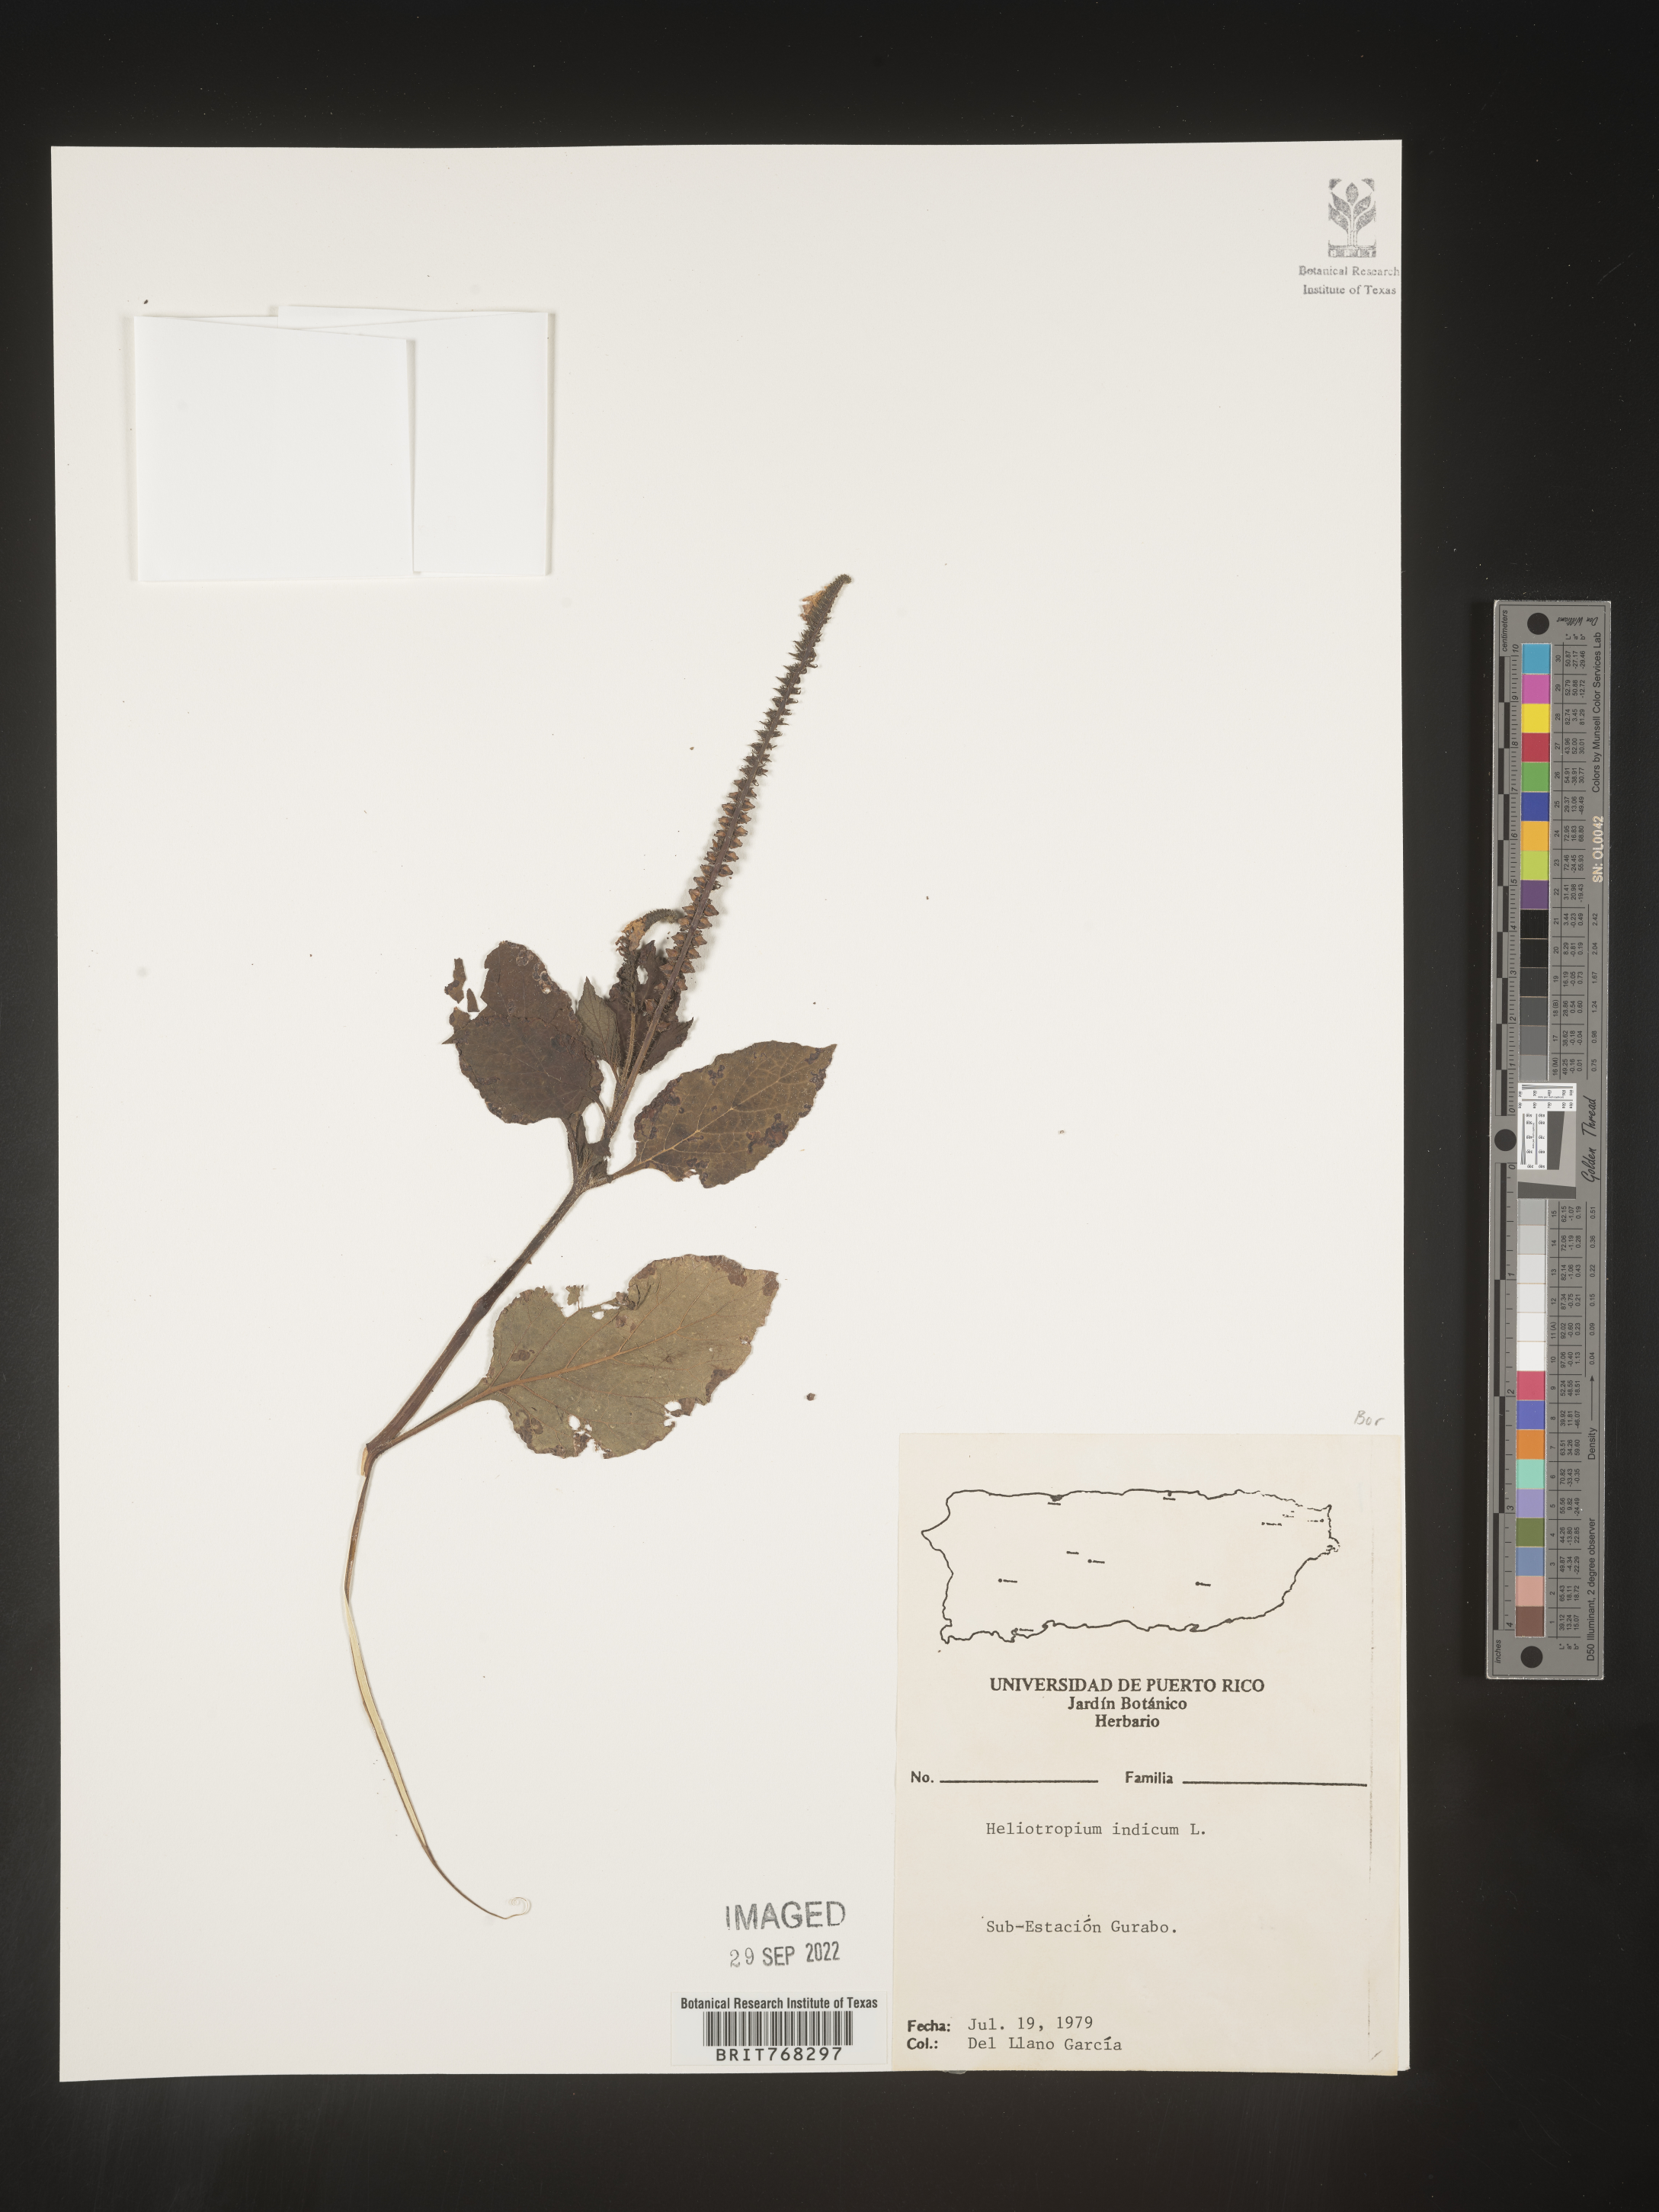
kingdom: Plantae
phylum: Tracheophyta
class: Magnoliopsida
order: Boraginales
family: Heliotropiaceae
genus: Heliotropium
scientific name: Heliotropium
